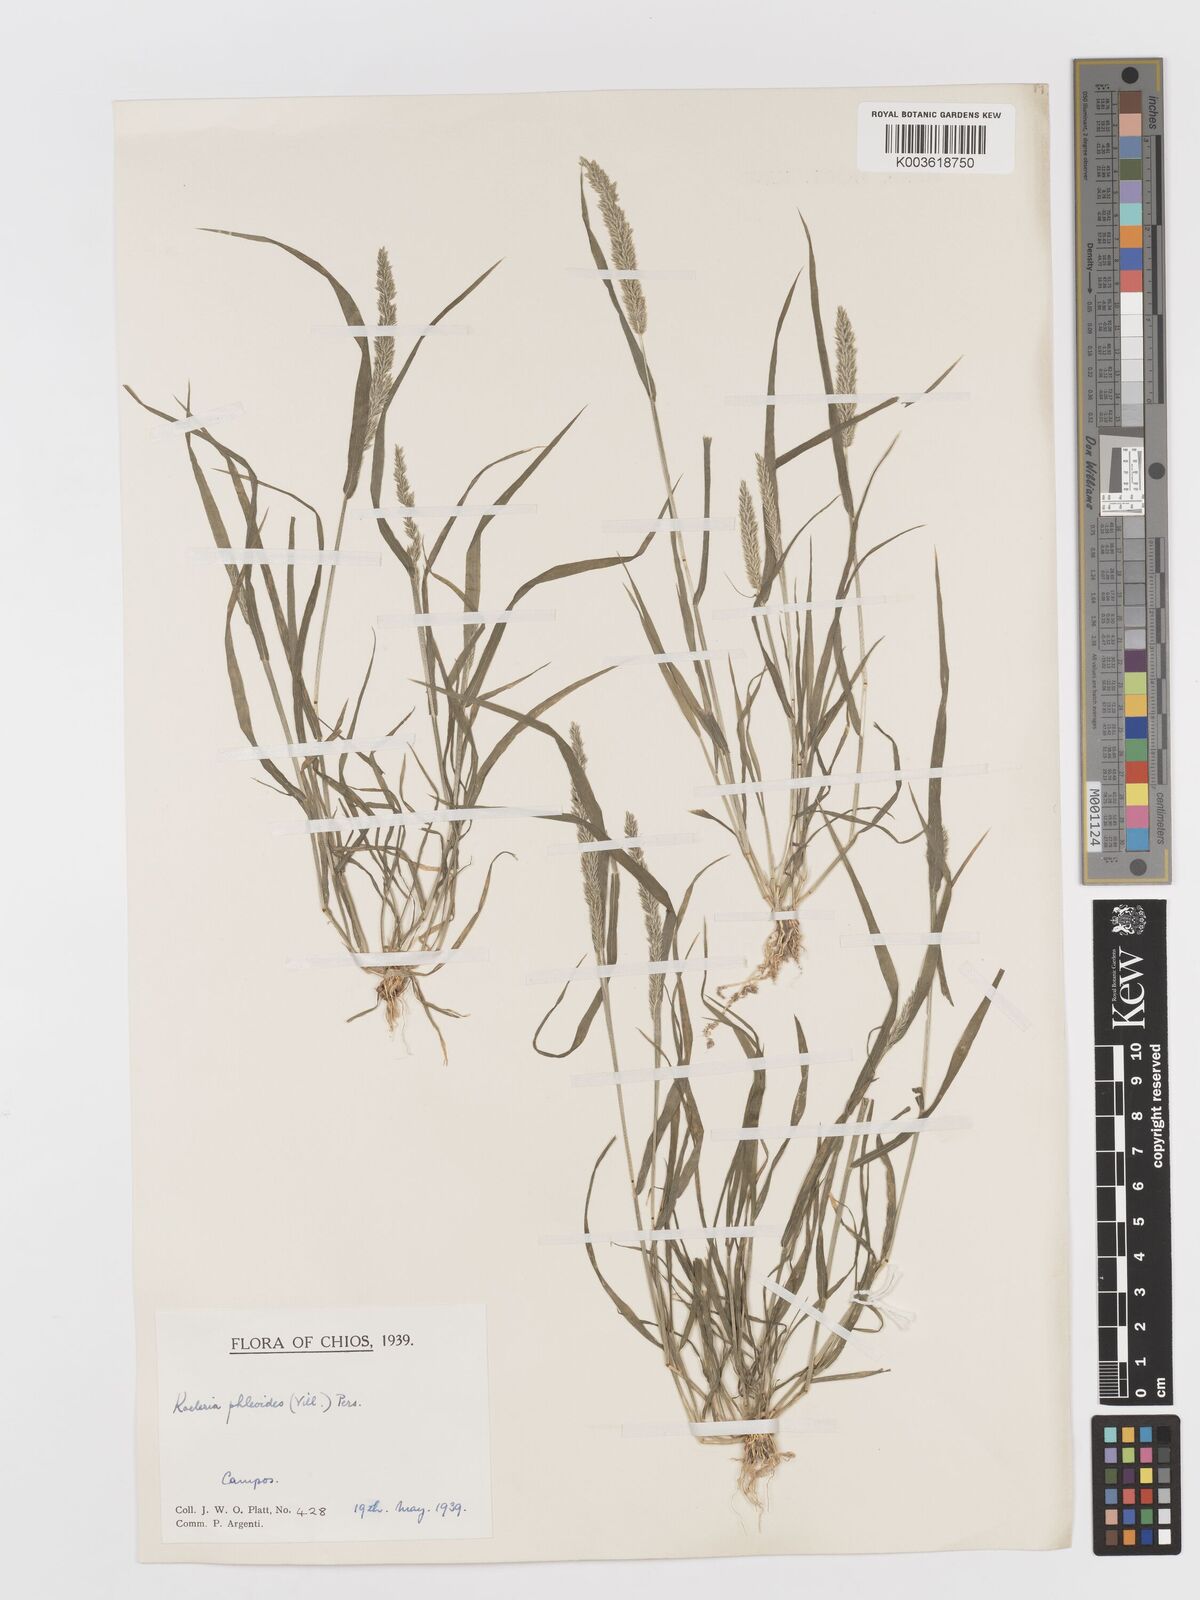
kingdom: Plantae
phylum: Tracheophyta
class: Liliopsida
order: Poales
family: Poaceae
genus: Rostraria
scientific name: Rostraria cristata
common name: Mediterranean hair-grass
